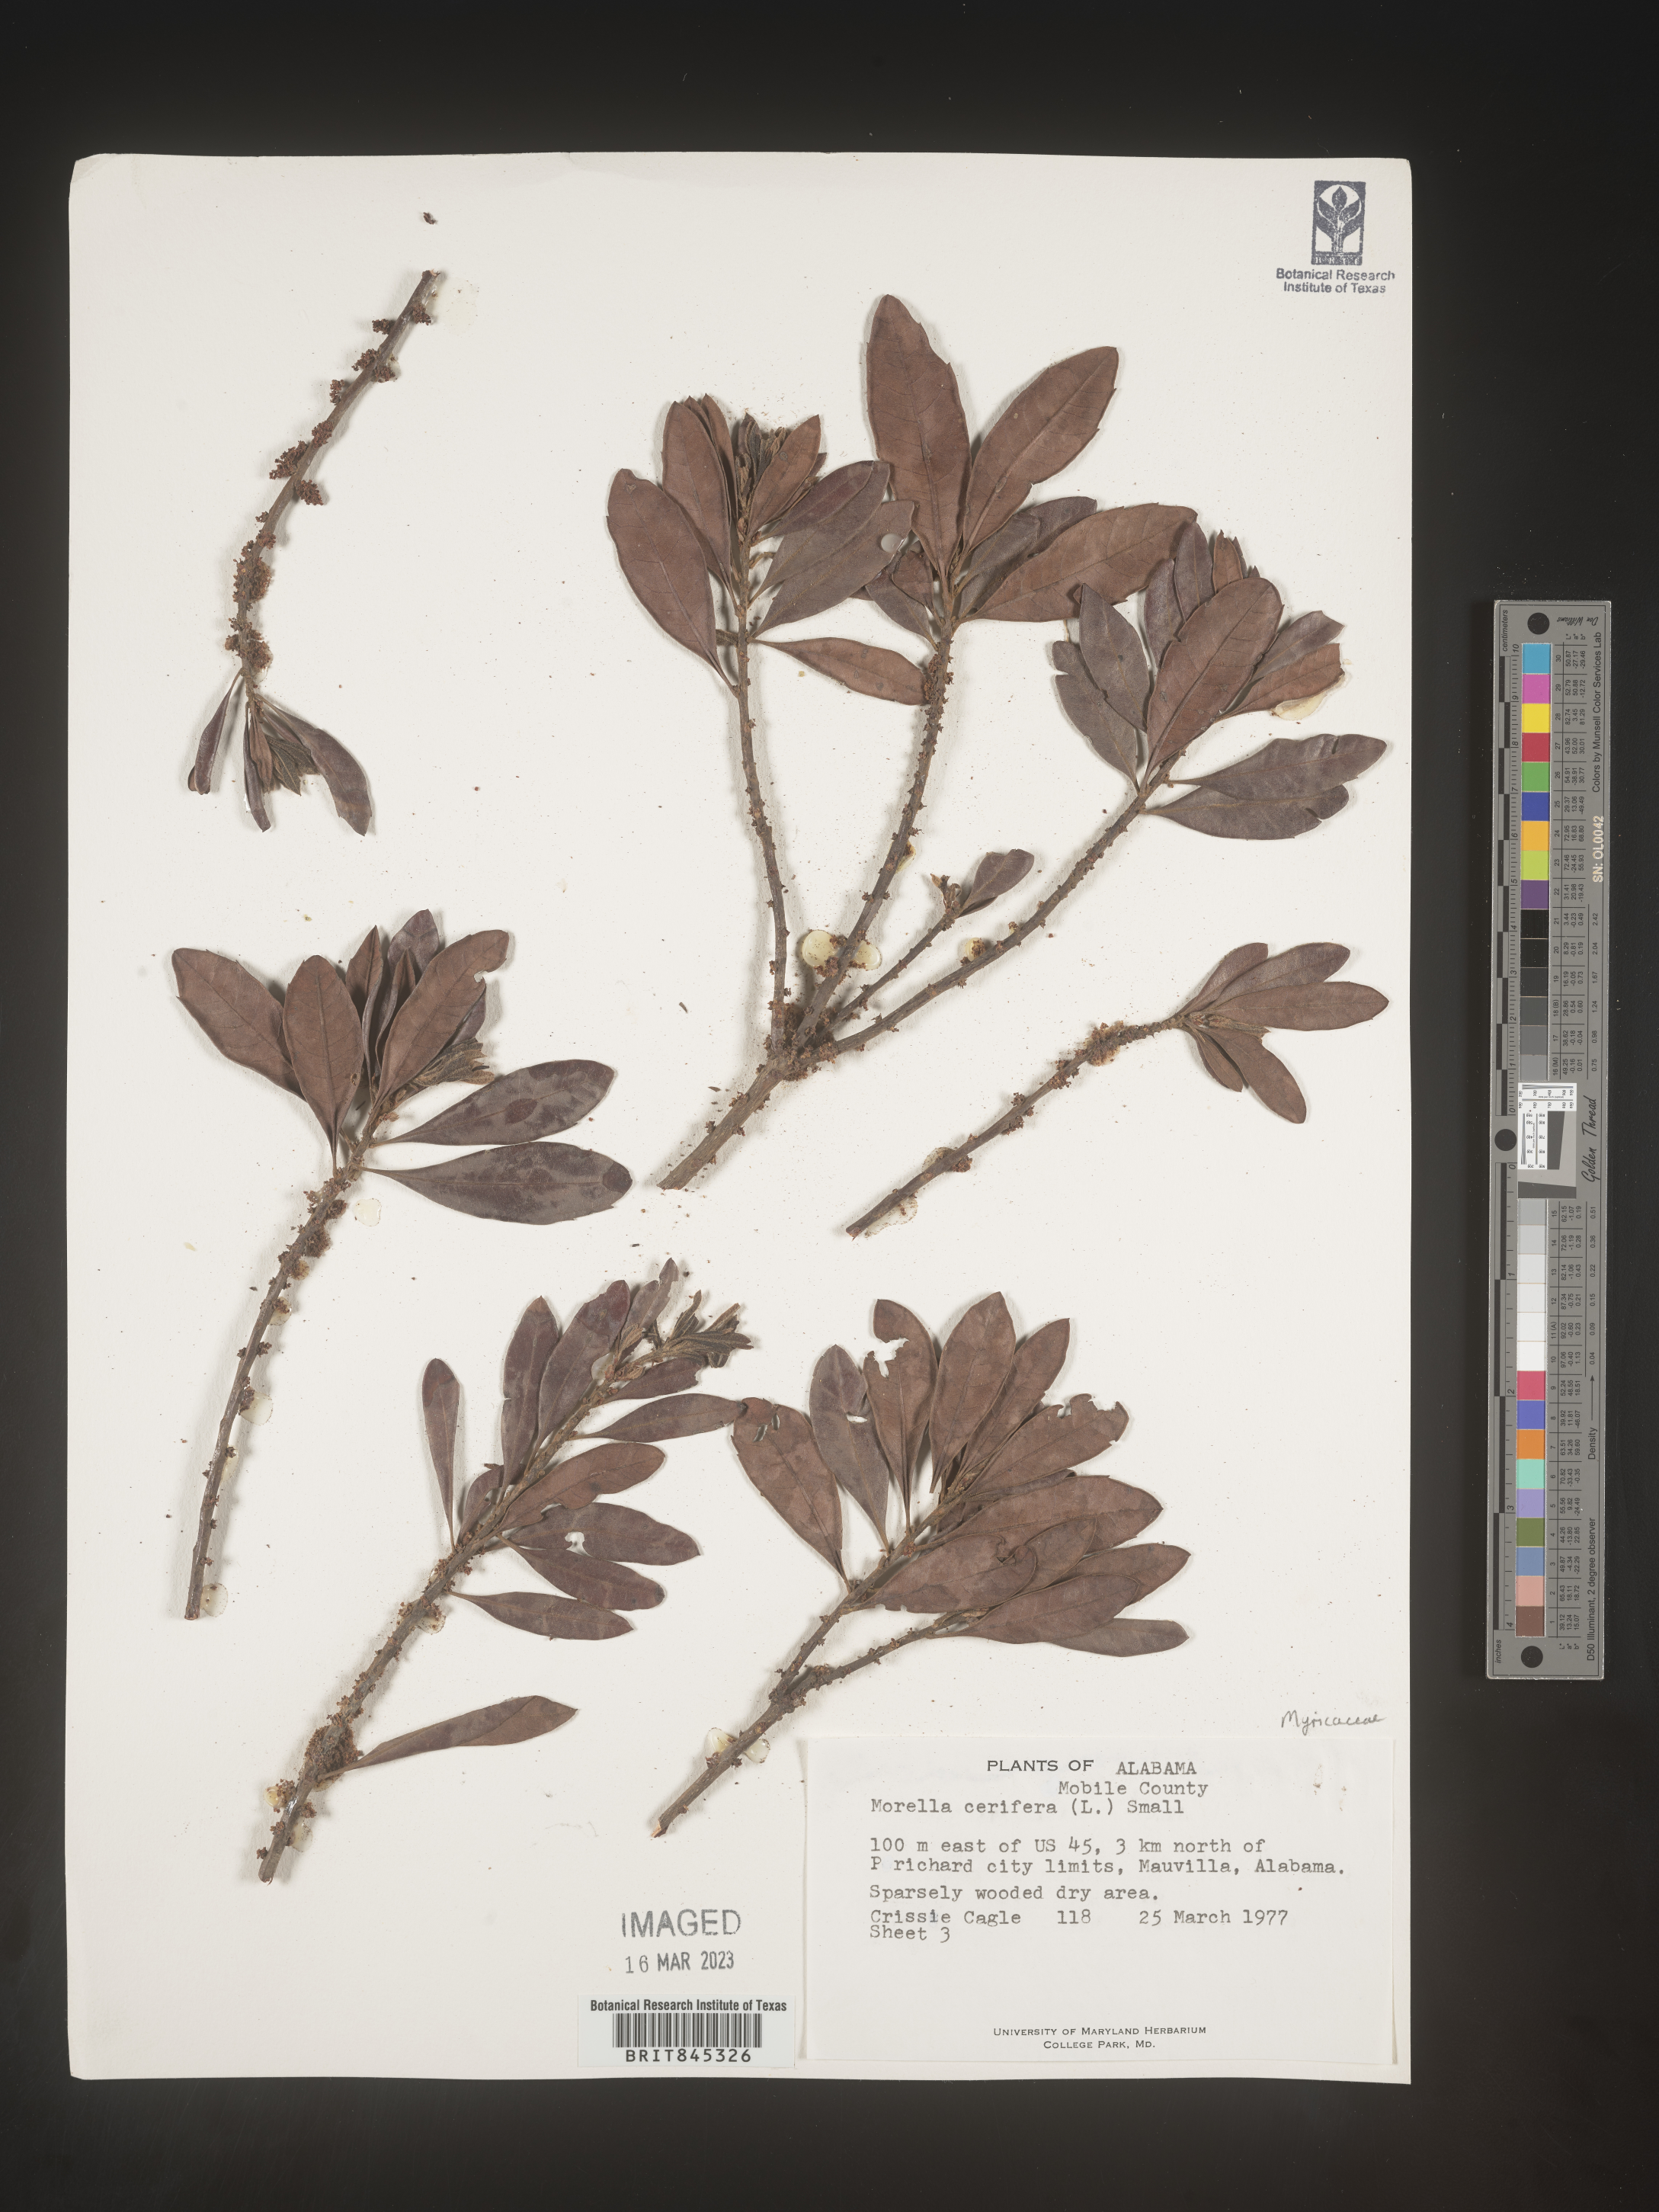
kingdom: Plantae
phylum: Tracheophyta
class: Magnoliopsida
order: Fagales
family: Myricaceae
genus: Morella
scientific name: Morella cerifera
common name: Wax myrtle
